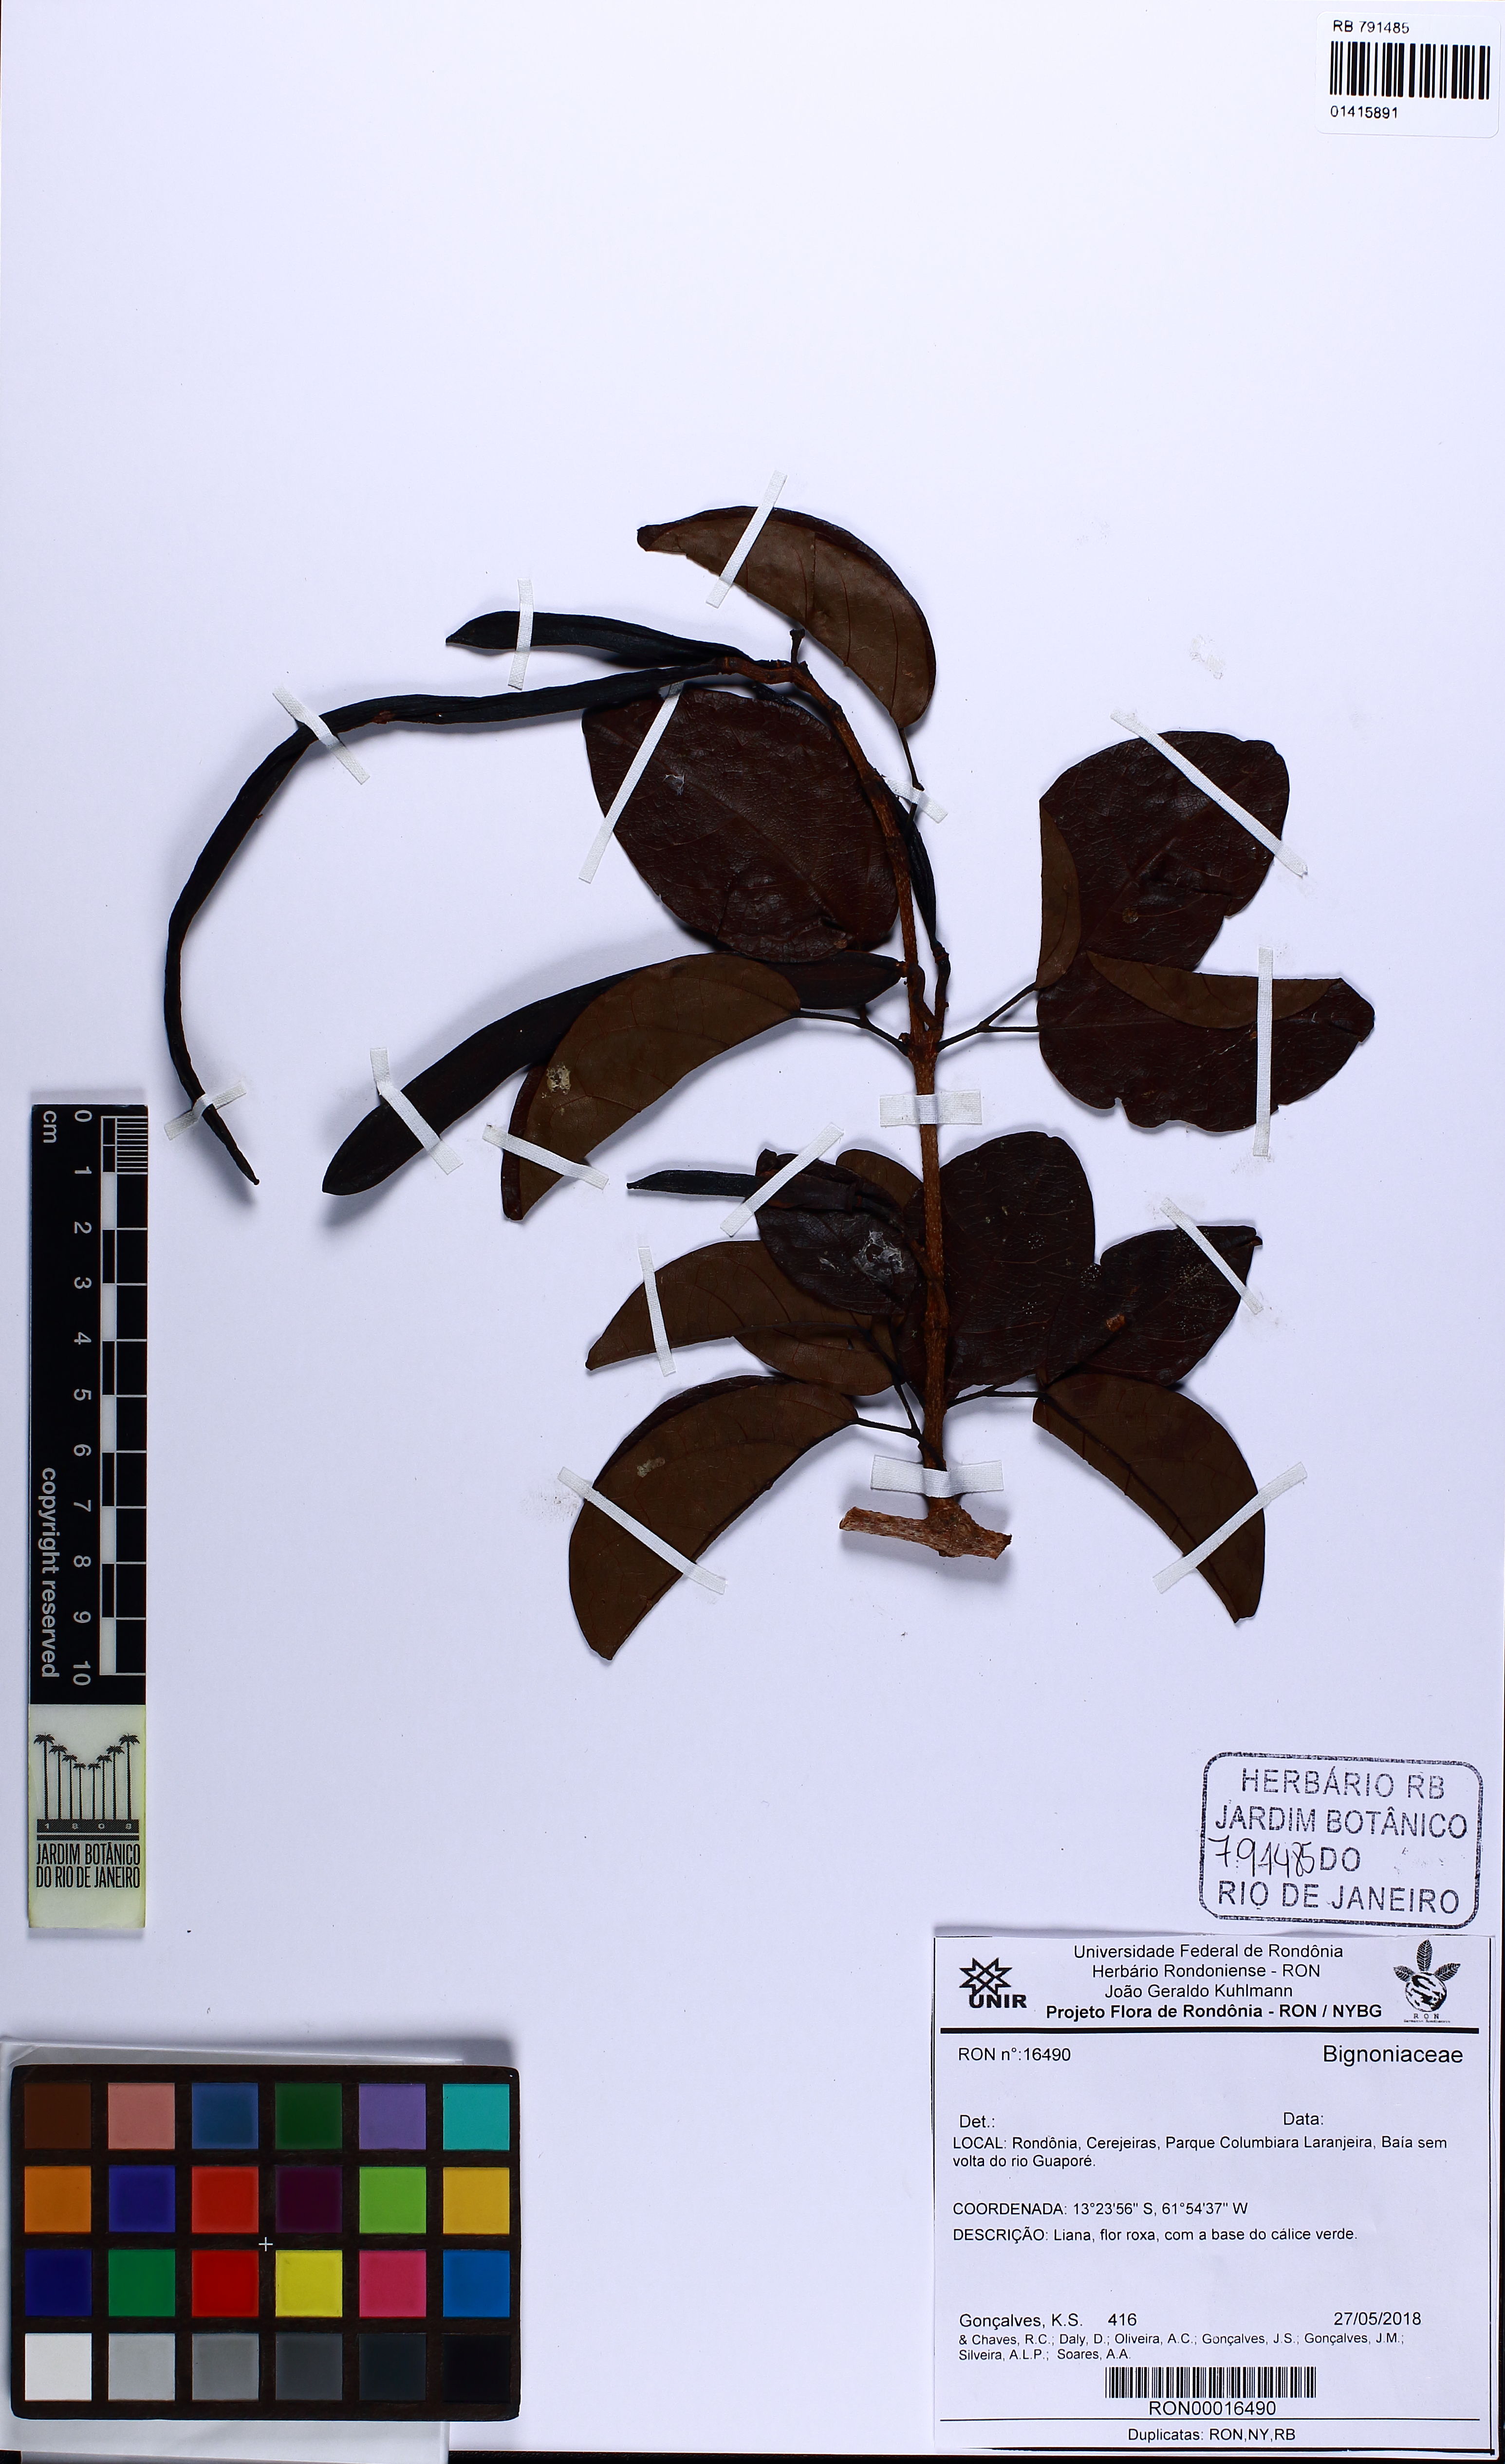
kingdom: Plantae
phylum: Tracheophyta
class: Magnoliopsida
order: Lamiales
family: Bignoniaceae
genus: Fridericia
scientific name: Fridericia florida
